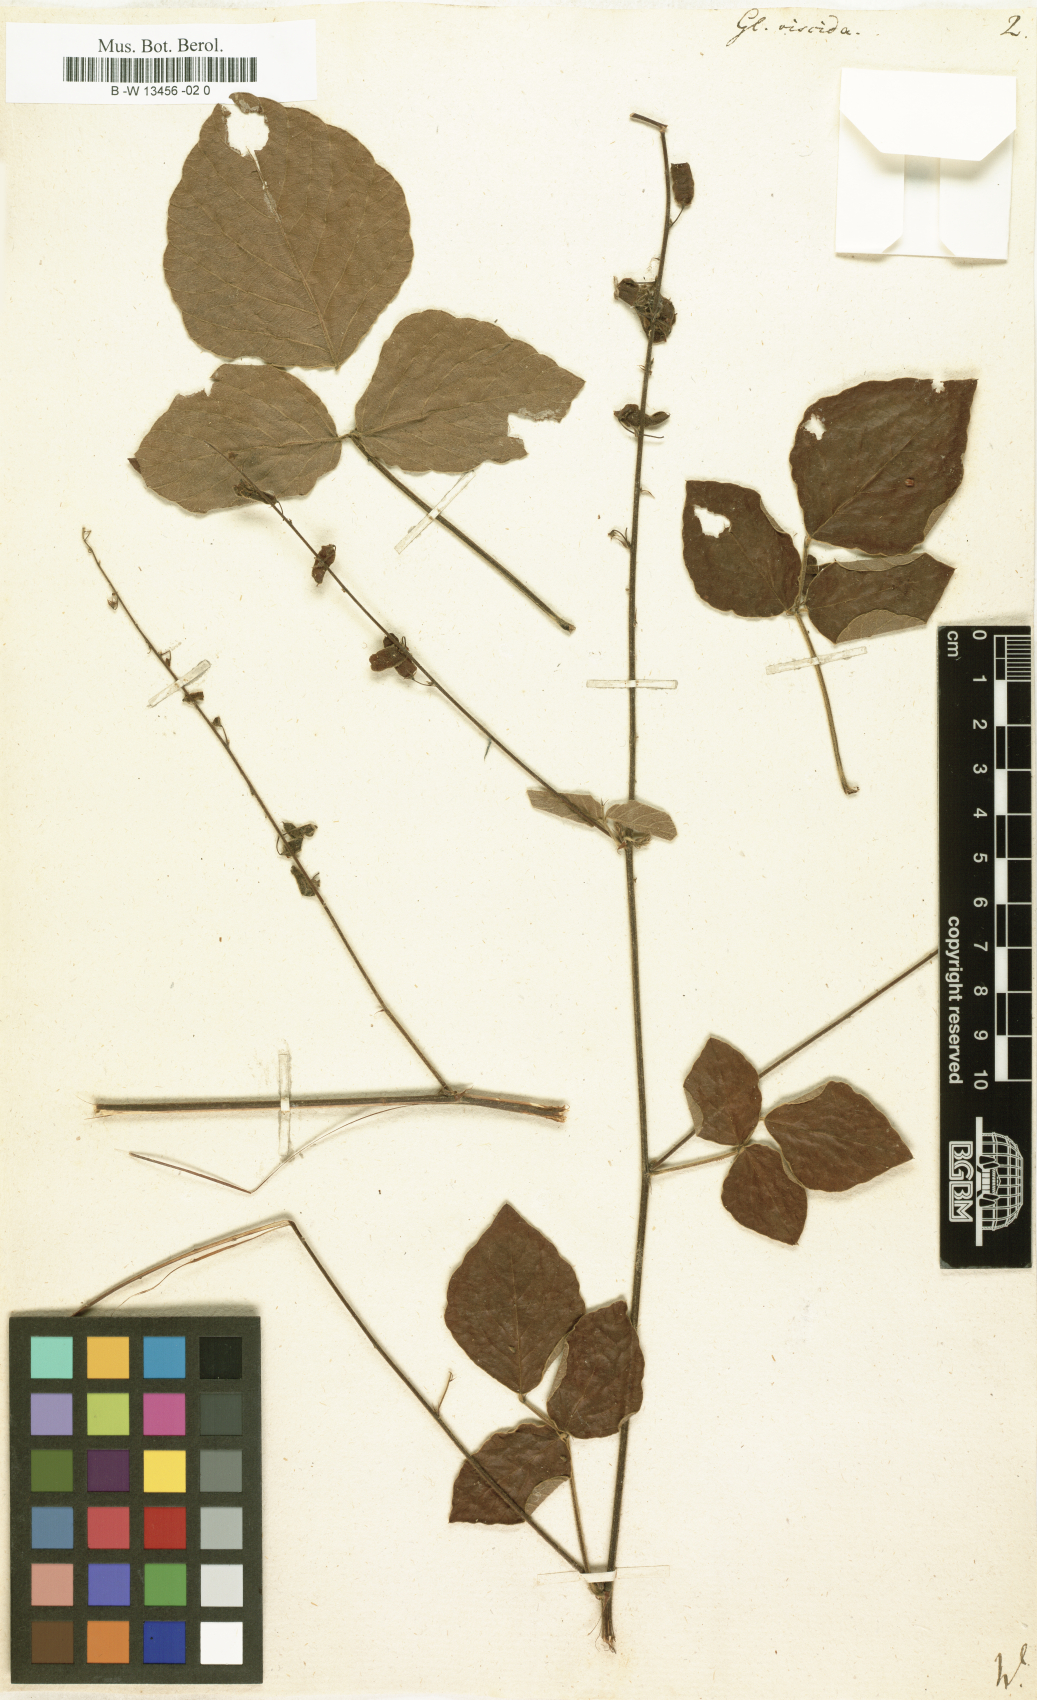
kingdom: Plantae
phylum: Tracheophyta
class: Magnoliopsida
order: Fabales
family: Fabaceae
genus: Pseudarthria
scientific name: Pseudarthria viscida
